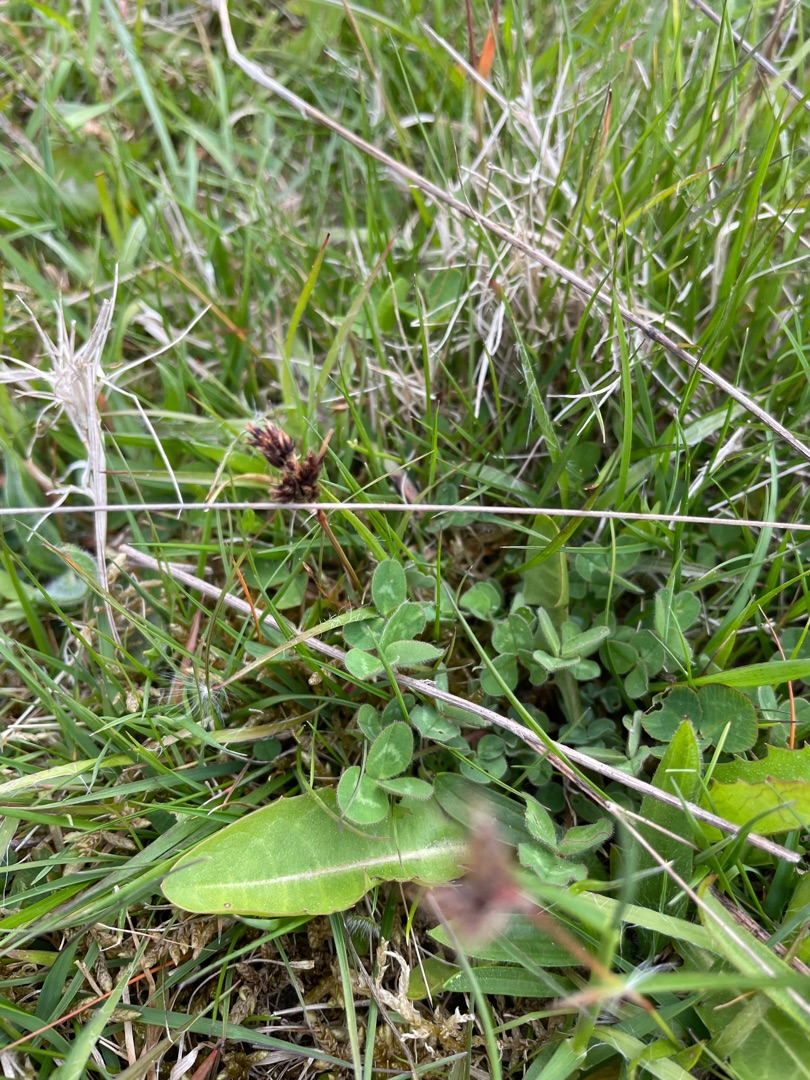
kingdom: Plantae
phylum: Tracheophyta
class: Liliopsida
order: Poales
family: Juncaceae
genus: Luzula
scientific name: Luzula campestris
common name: Mark-frytle
